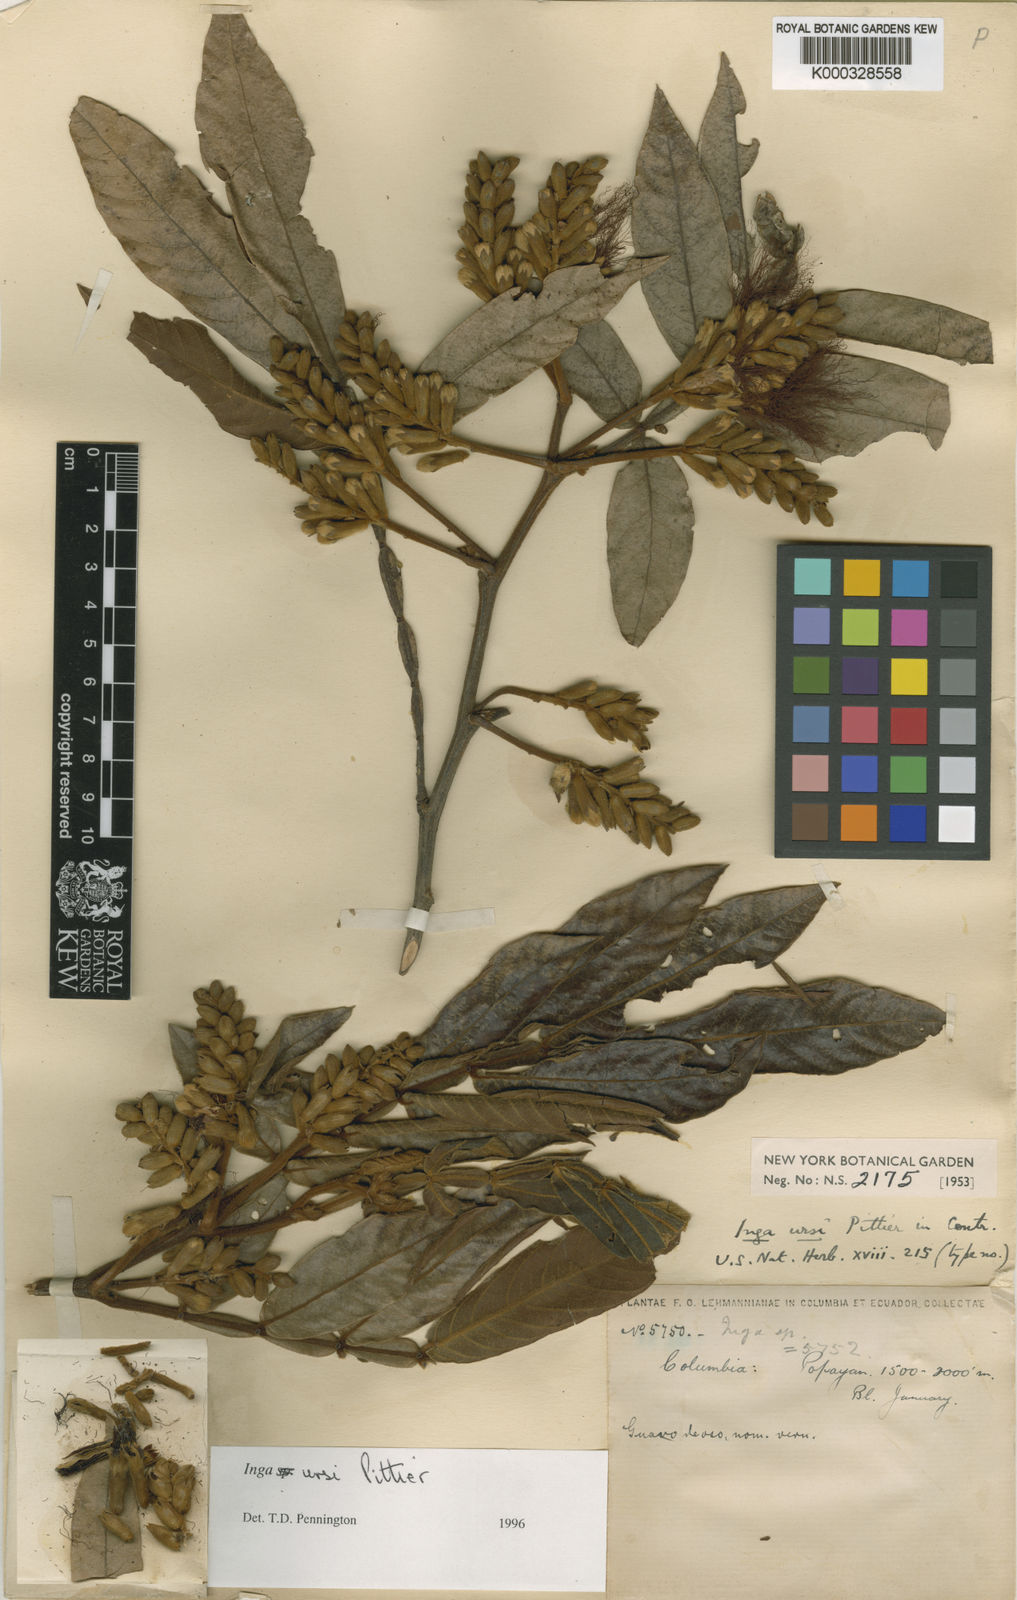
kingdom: Plantae
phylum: Tracheophyta
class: Magnoliopsida
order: Fabales
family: Fabaceae
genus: Inga
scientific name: Inga ursi
